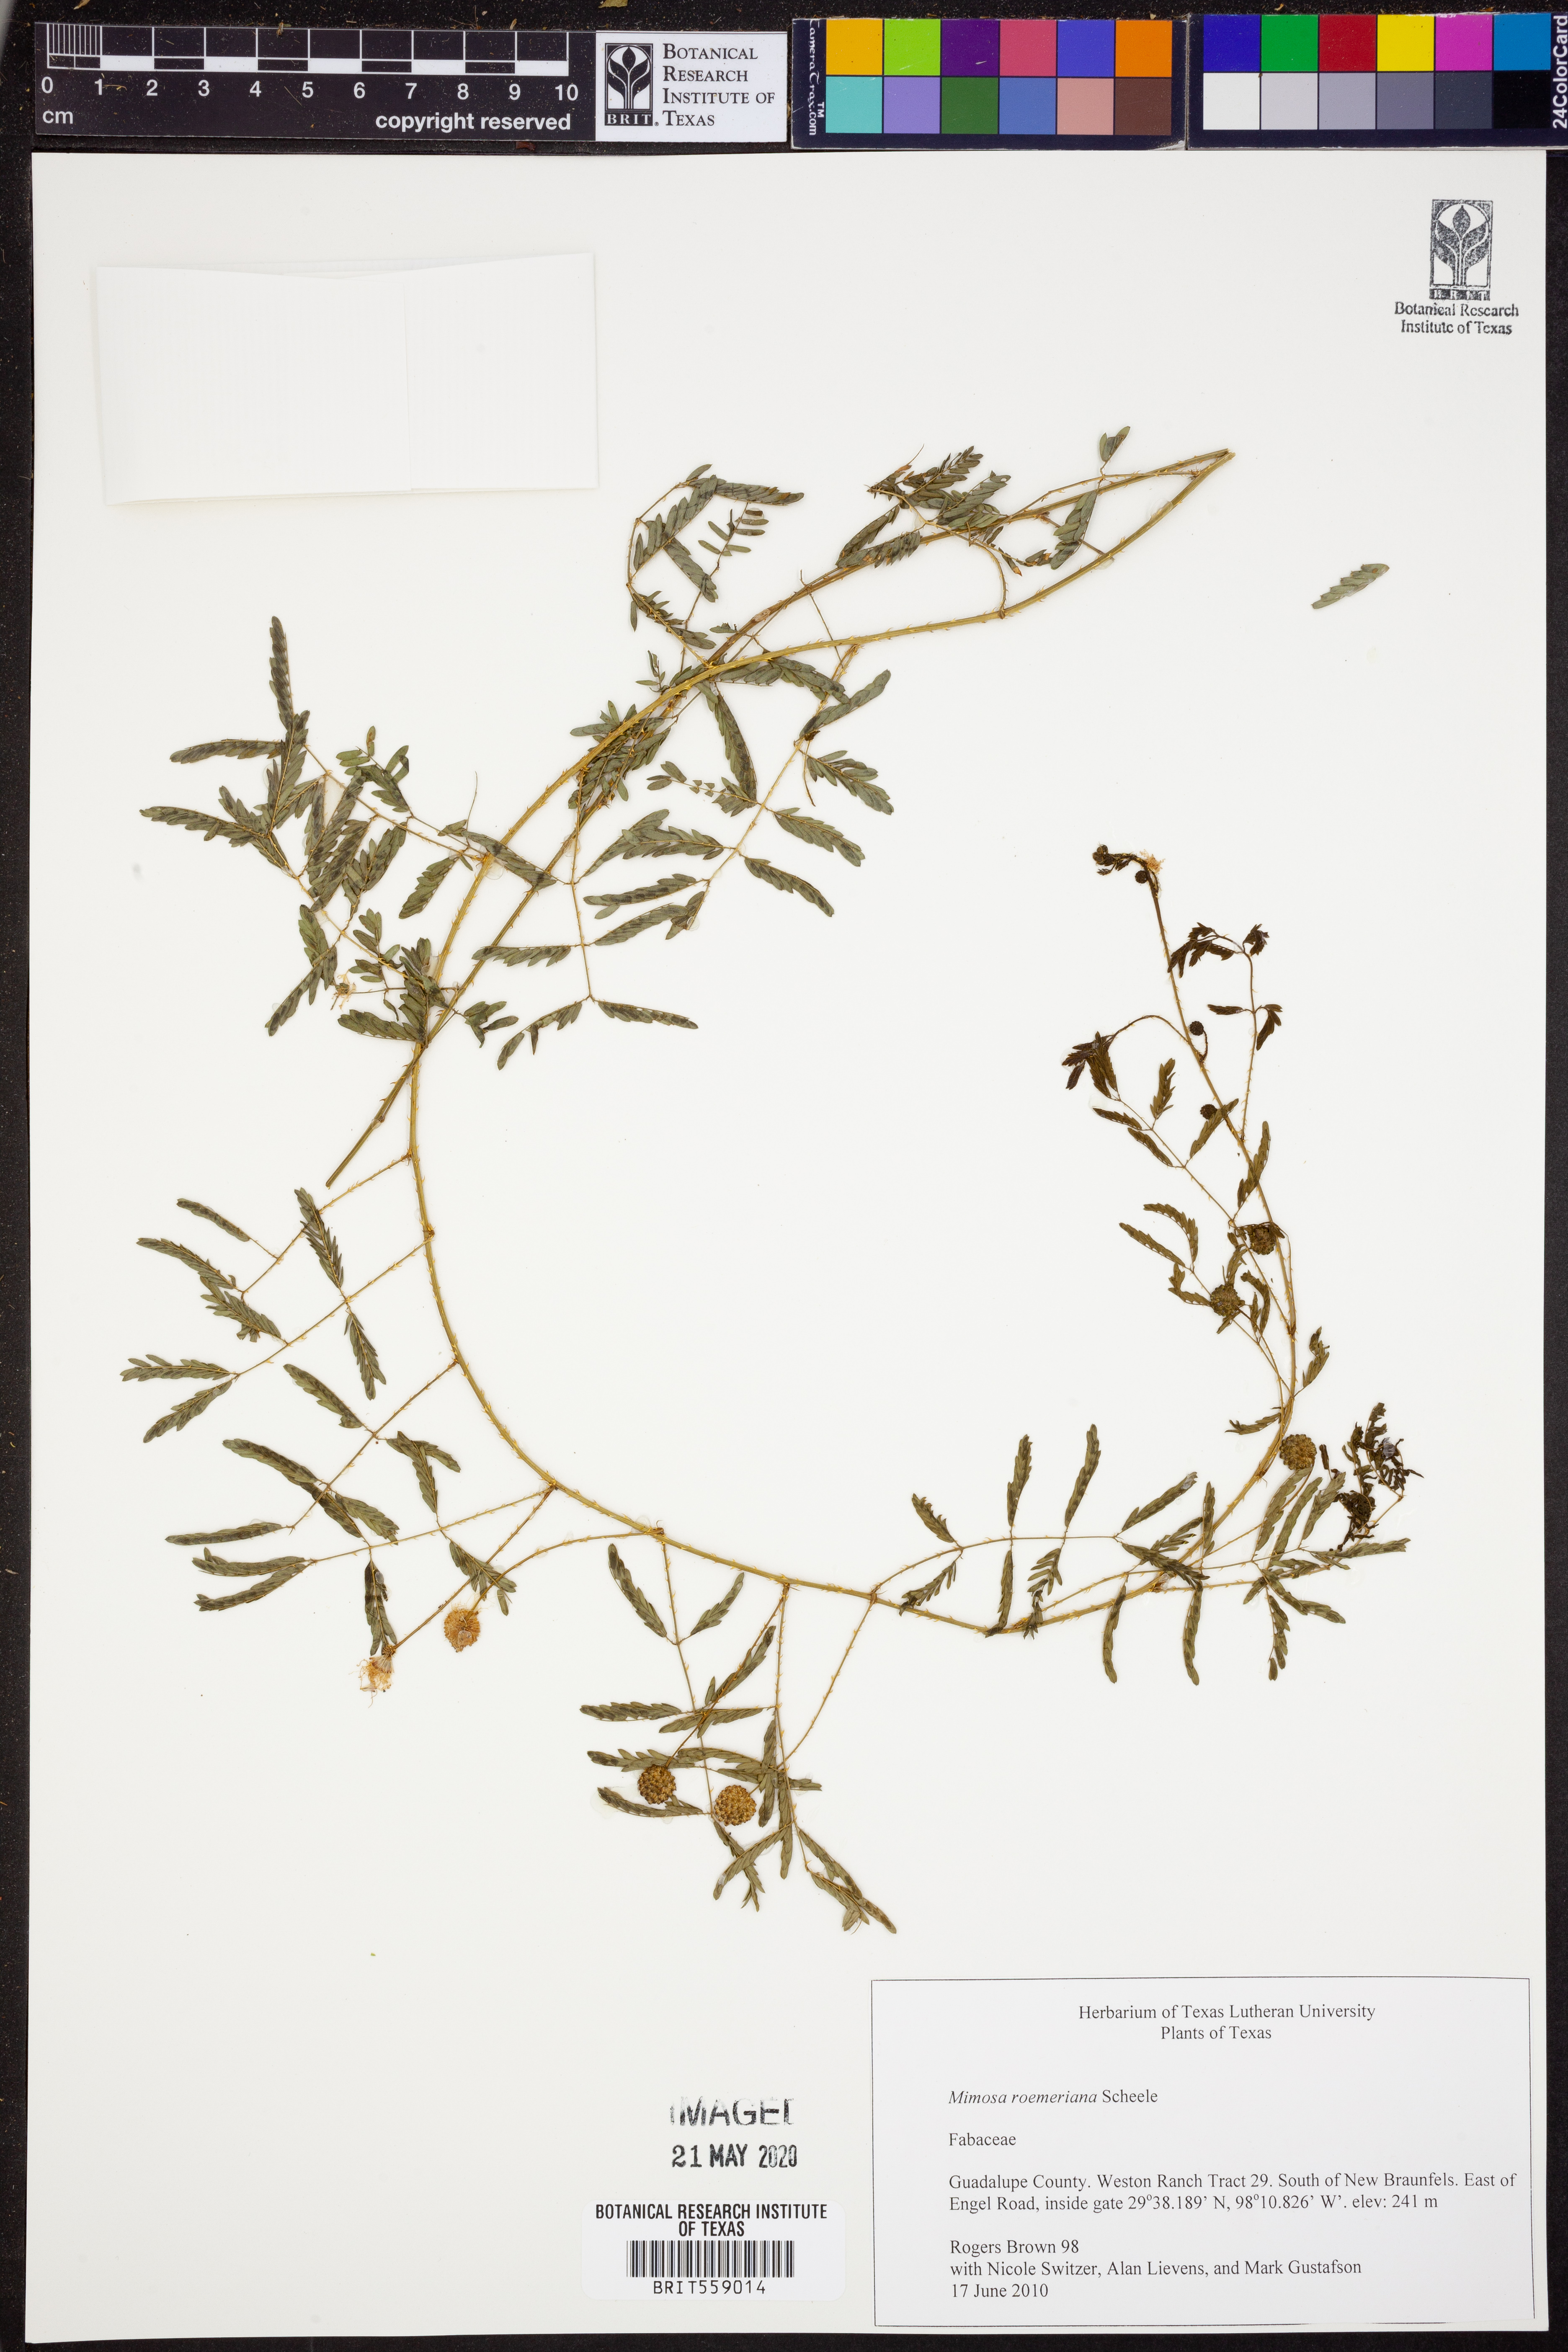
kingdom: Plantae
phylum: Tracheophyta
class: Magnoliopsida
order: Fabales
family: Fabaceae
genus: Mimosa
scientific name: Mimosa quadrivalvis
